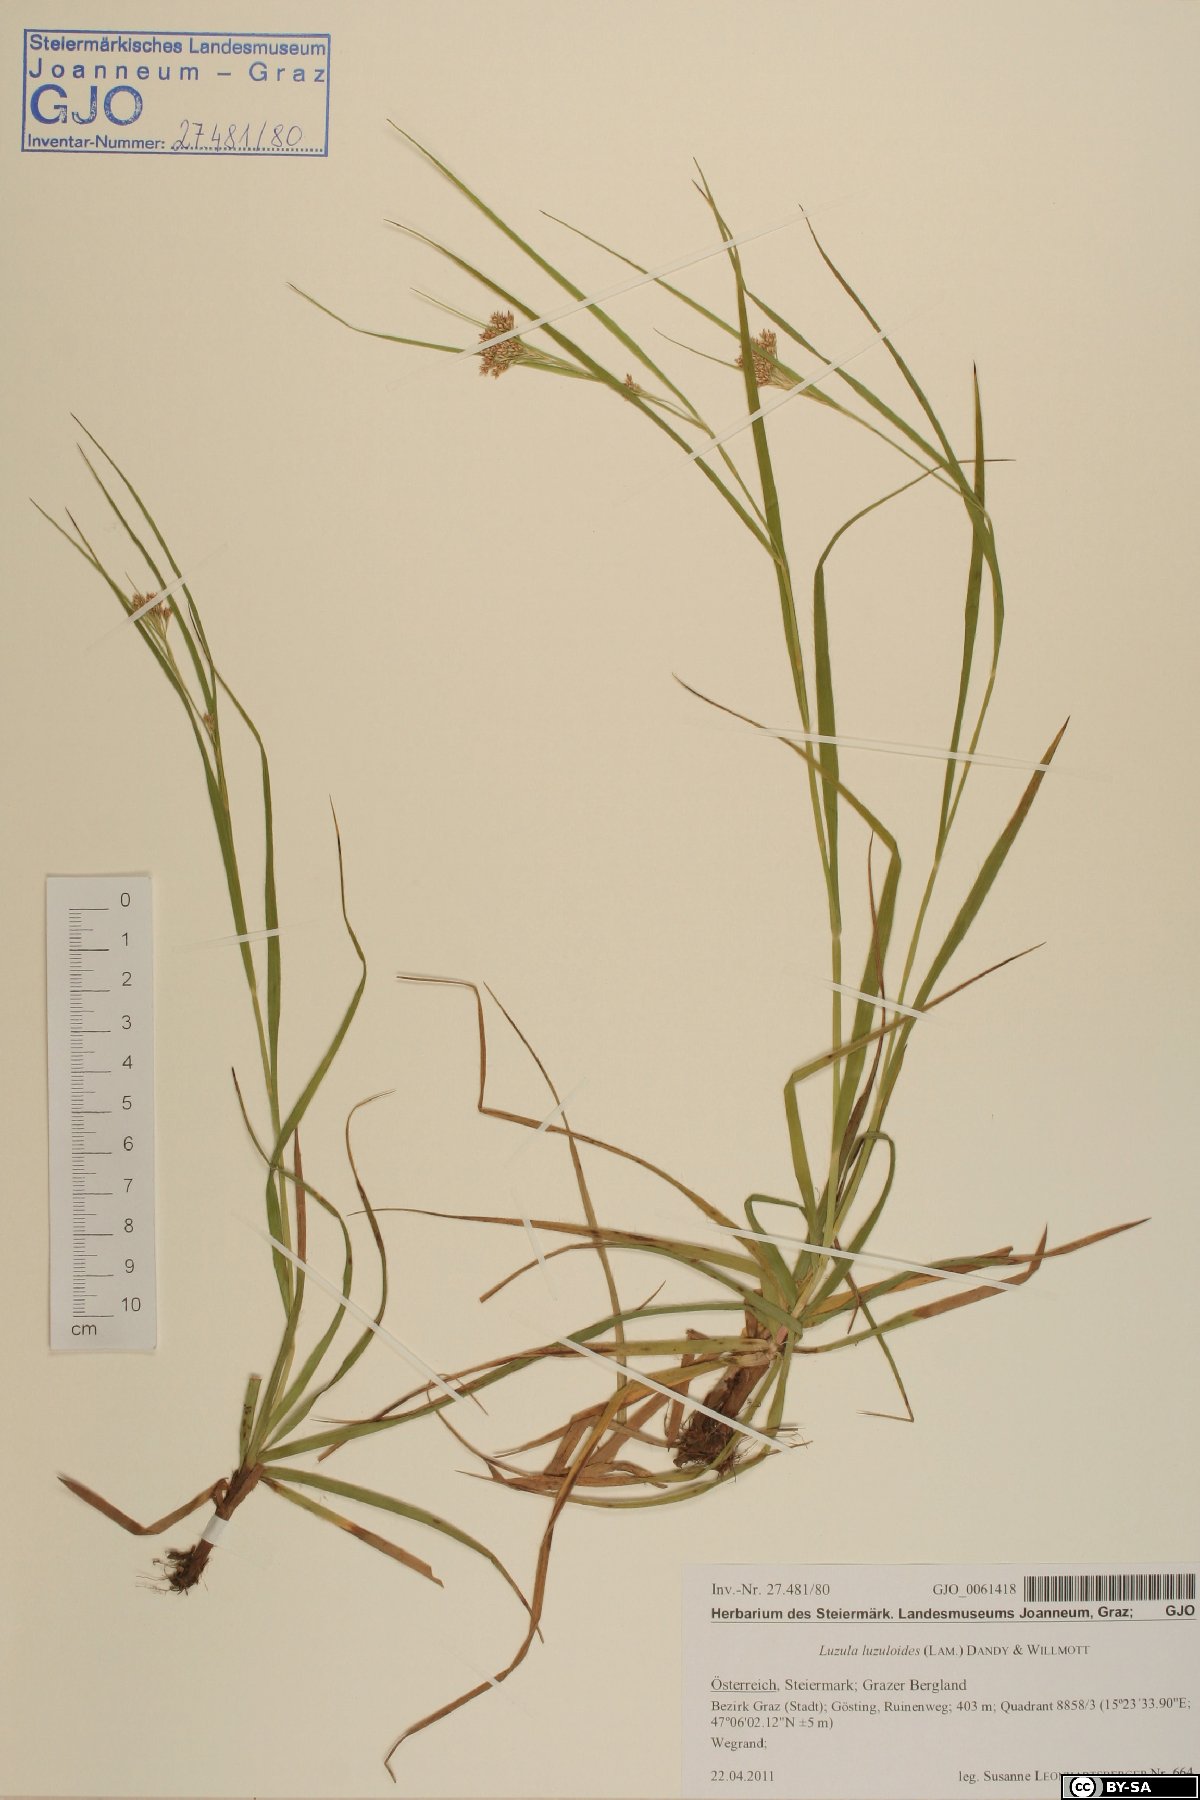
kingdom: Plantae
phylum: Tracheophyta
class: Liliopsida
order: Poales
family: Juncaceae
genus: Luzula
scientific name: Luzula luzuloides
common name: White wood-rush
